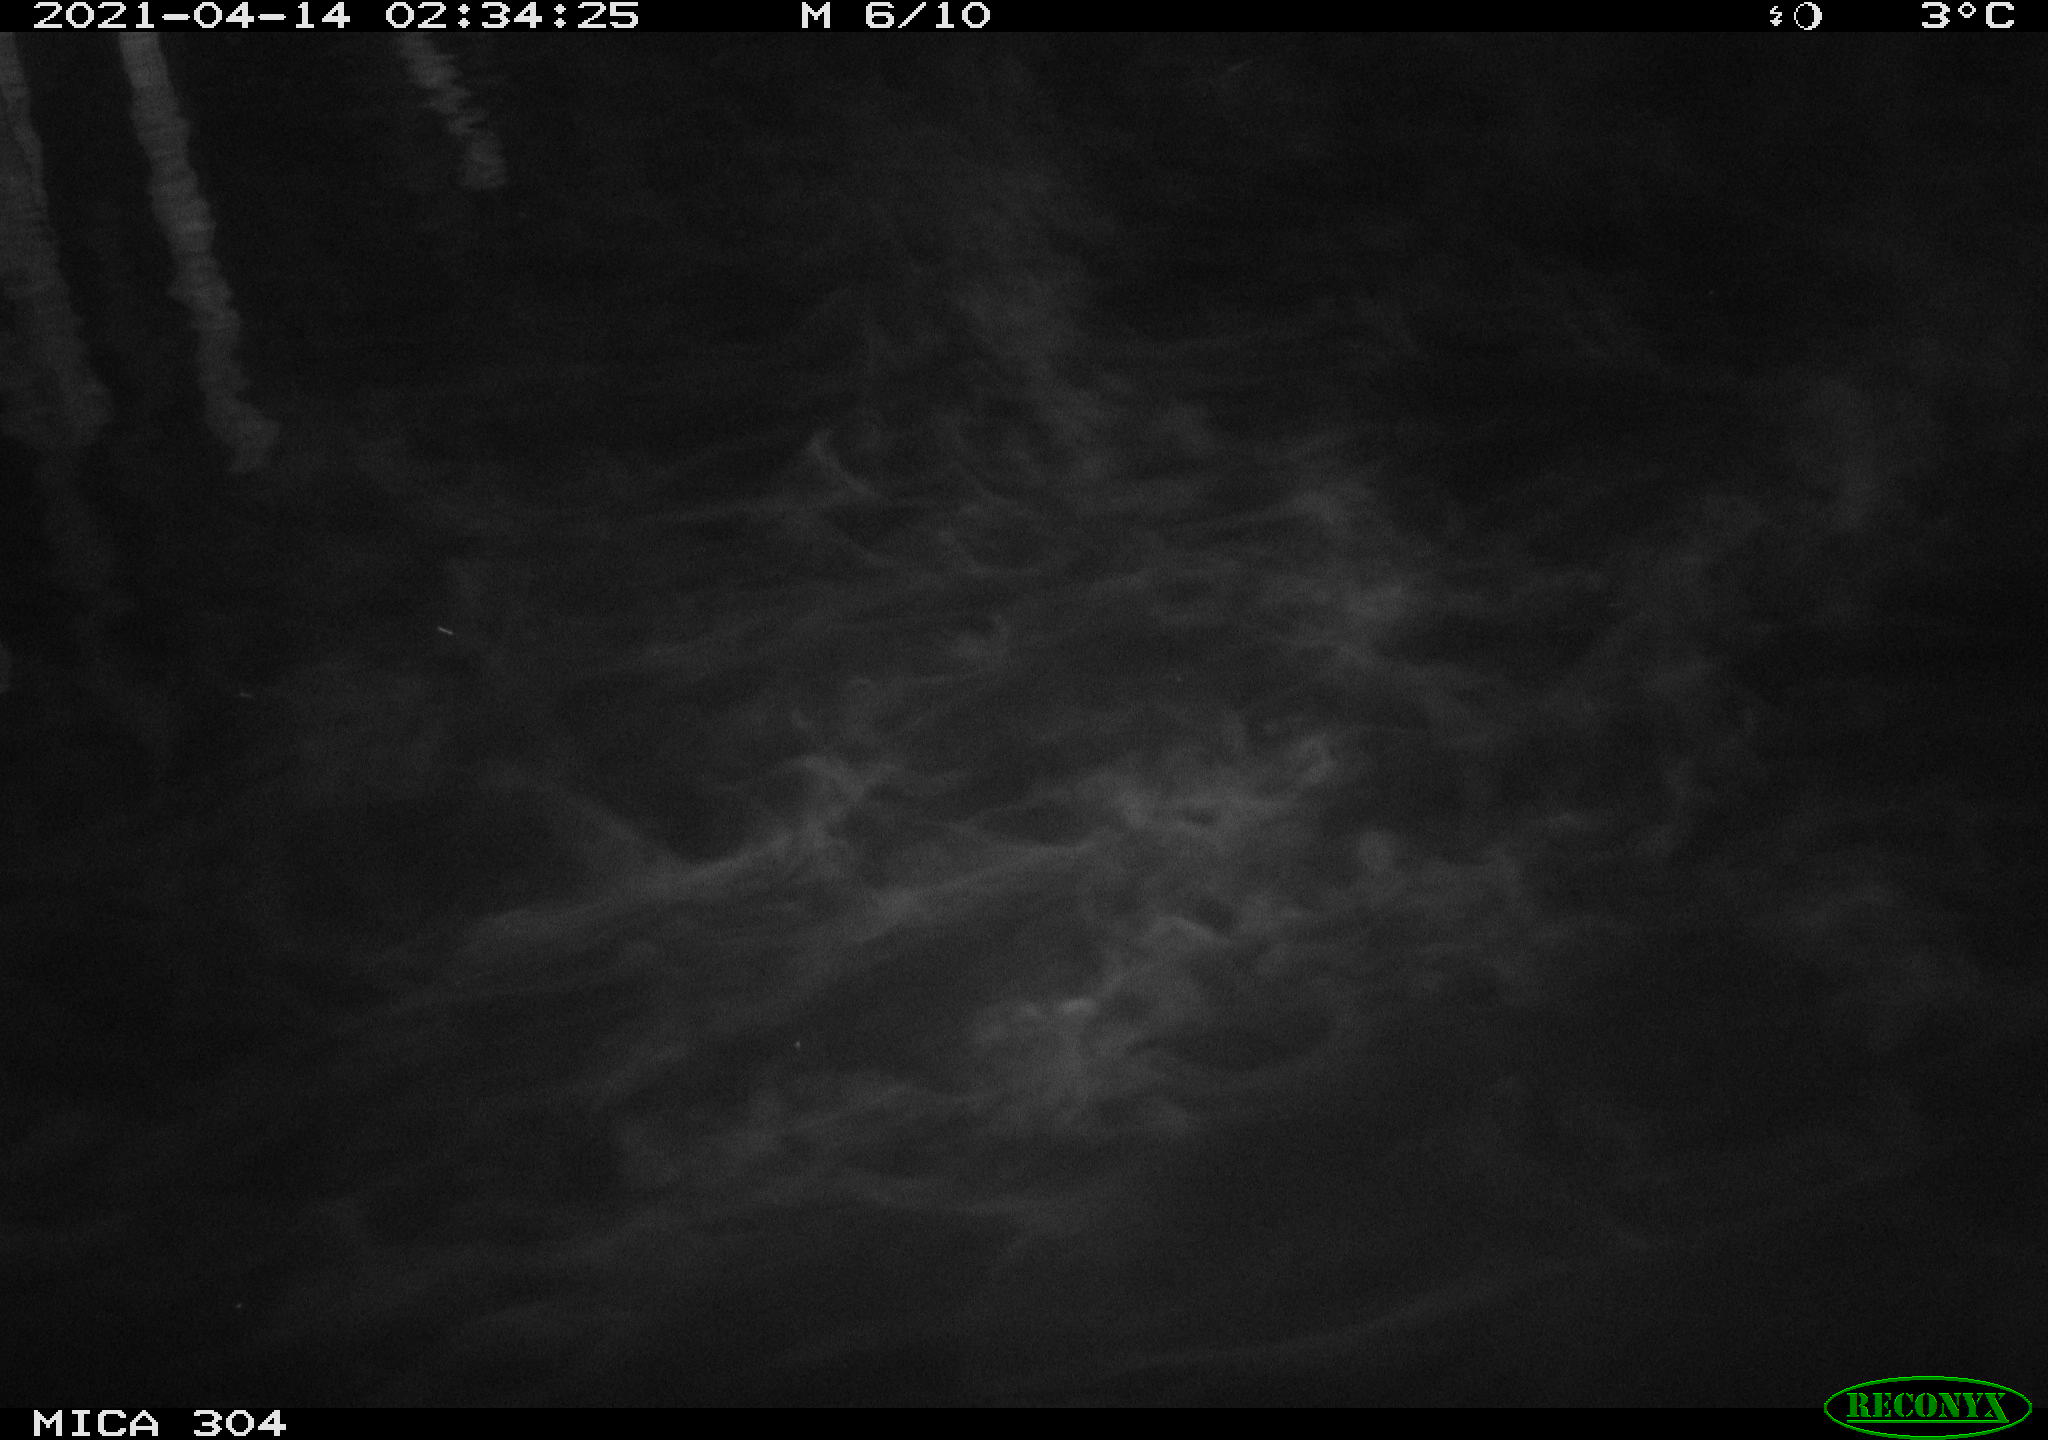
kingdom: Animalia
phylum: Chordata
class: Aves
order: Anseriformes
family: Anatidae
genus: Anas
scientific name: Anas
